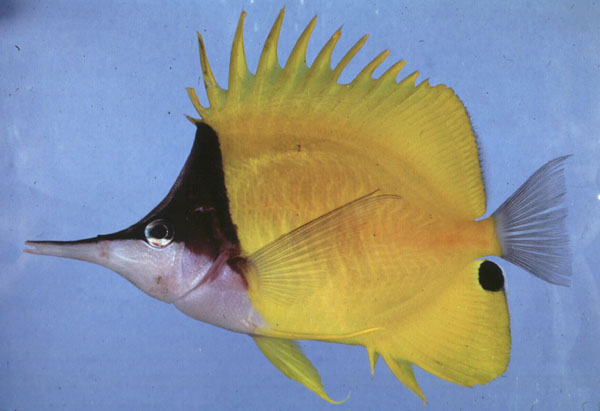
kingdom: Animalia
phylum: Chordata
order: Perciformes
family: Chaetodontidae
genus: Forcipiger
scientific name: Forcipiger flavissimus
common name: Forcepsfish
